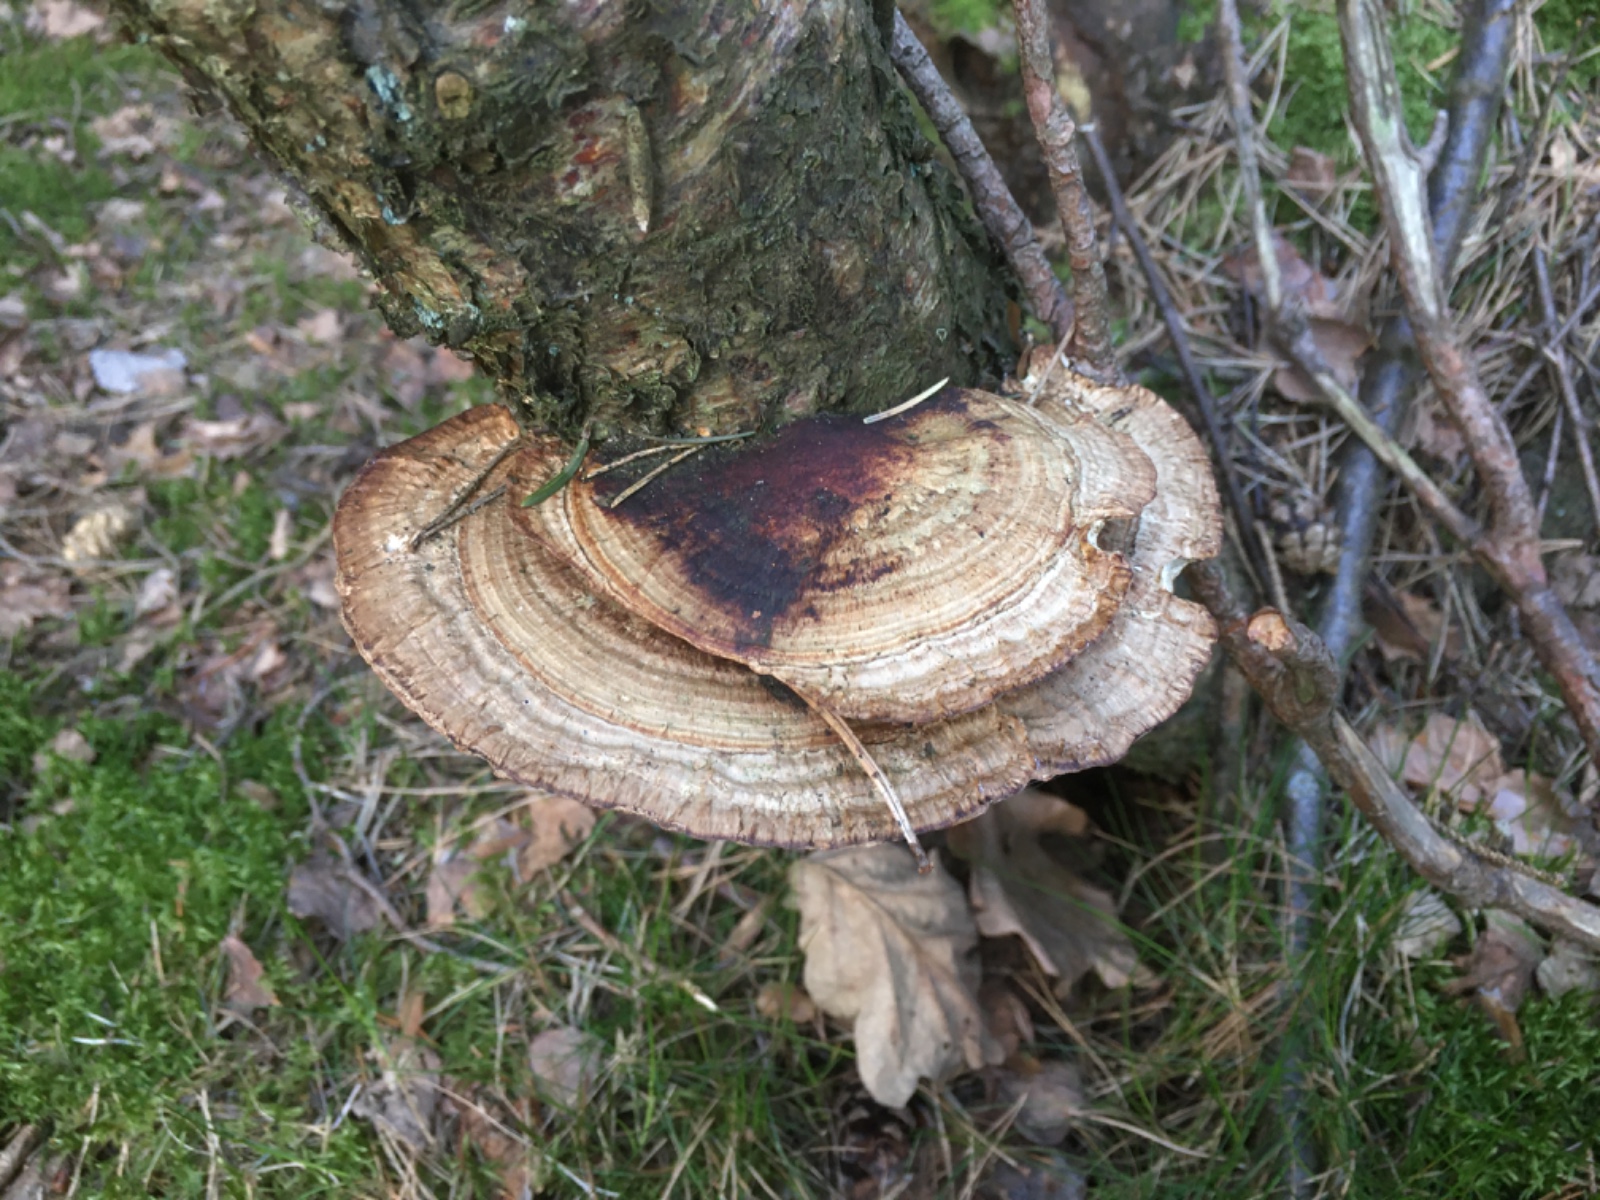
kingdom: Fungi
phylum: Basidiomycota
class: Agaricomycetes
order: Polyporales
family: Polyporaceae
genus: Daedaleopsis
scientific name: Daedaleopsis confragosa
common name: rødmende læderporesvamp
